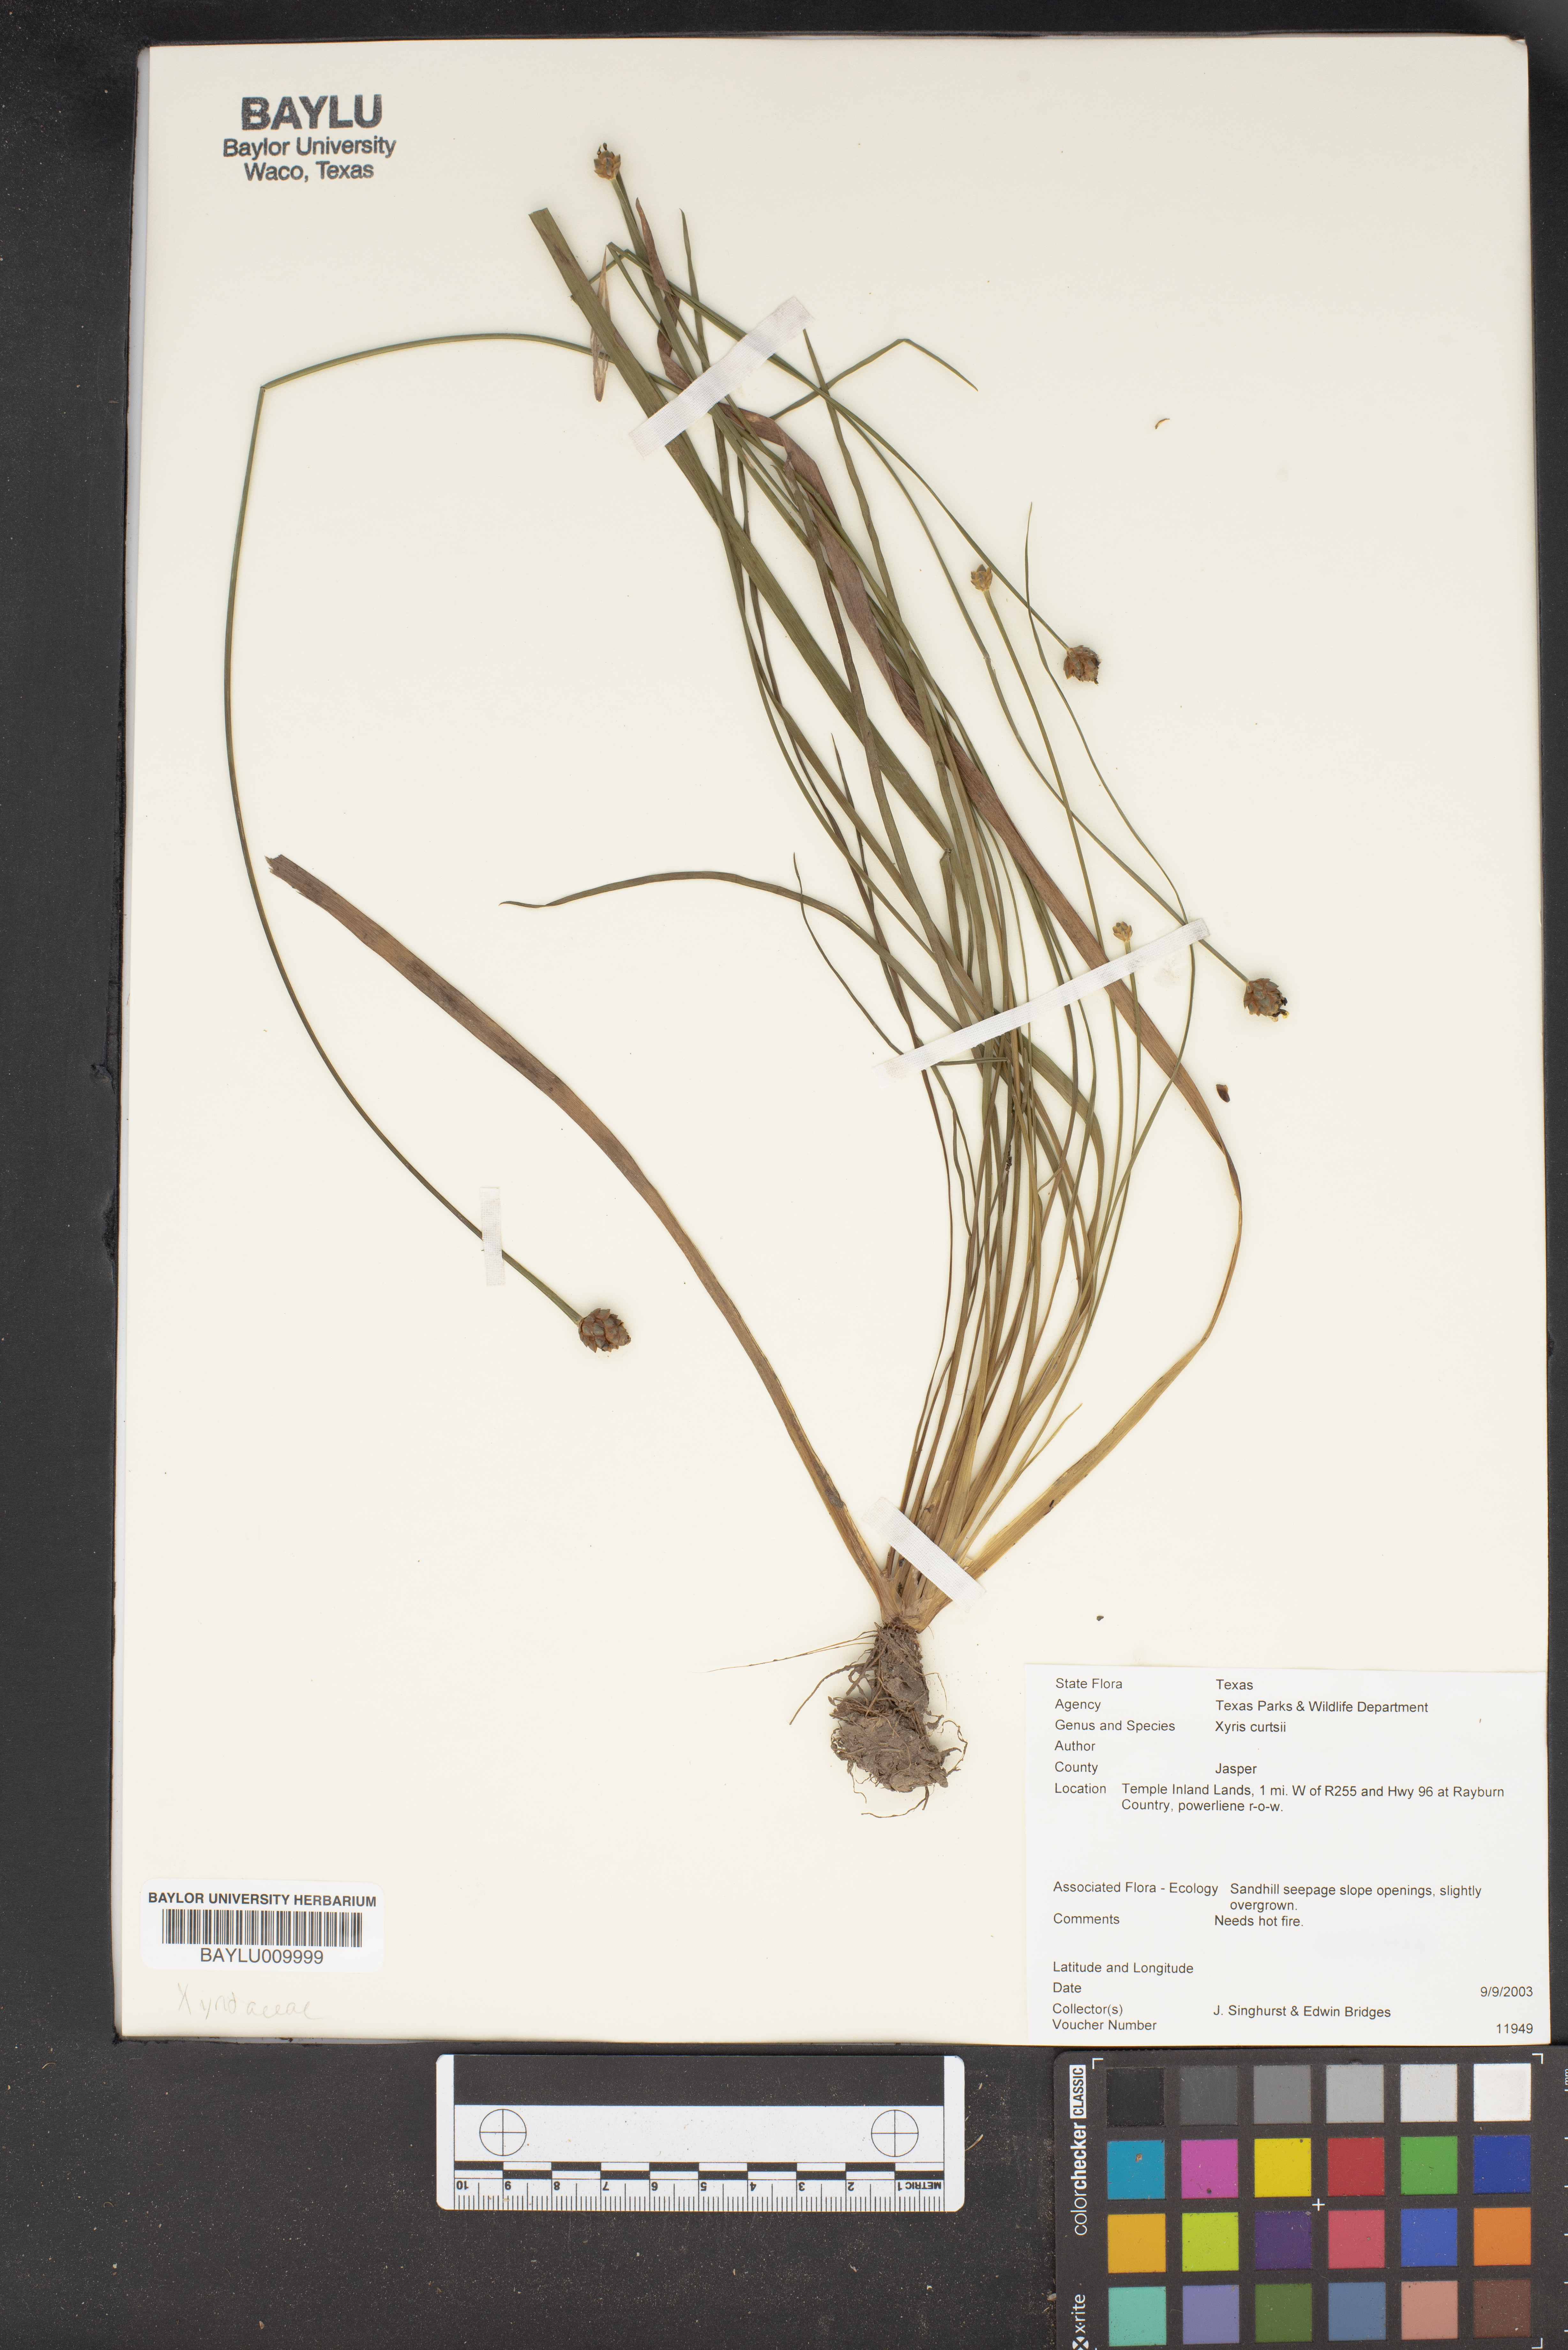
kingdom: Plantae
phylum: Tracheophyta
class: Liliopsida
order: Poales
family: Xyridaceae
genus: Xyris
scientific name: Xyris difformis
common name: Bog yellow-eyed-grass
